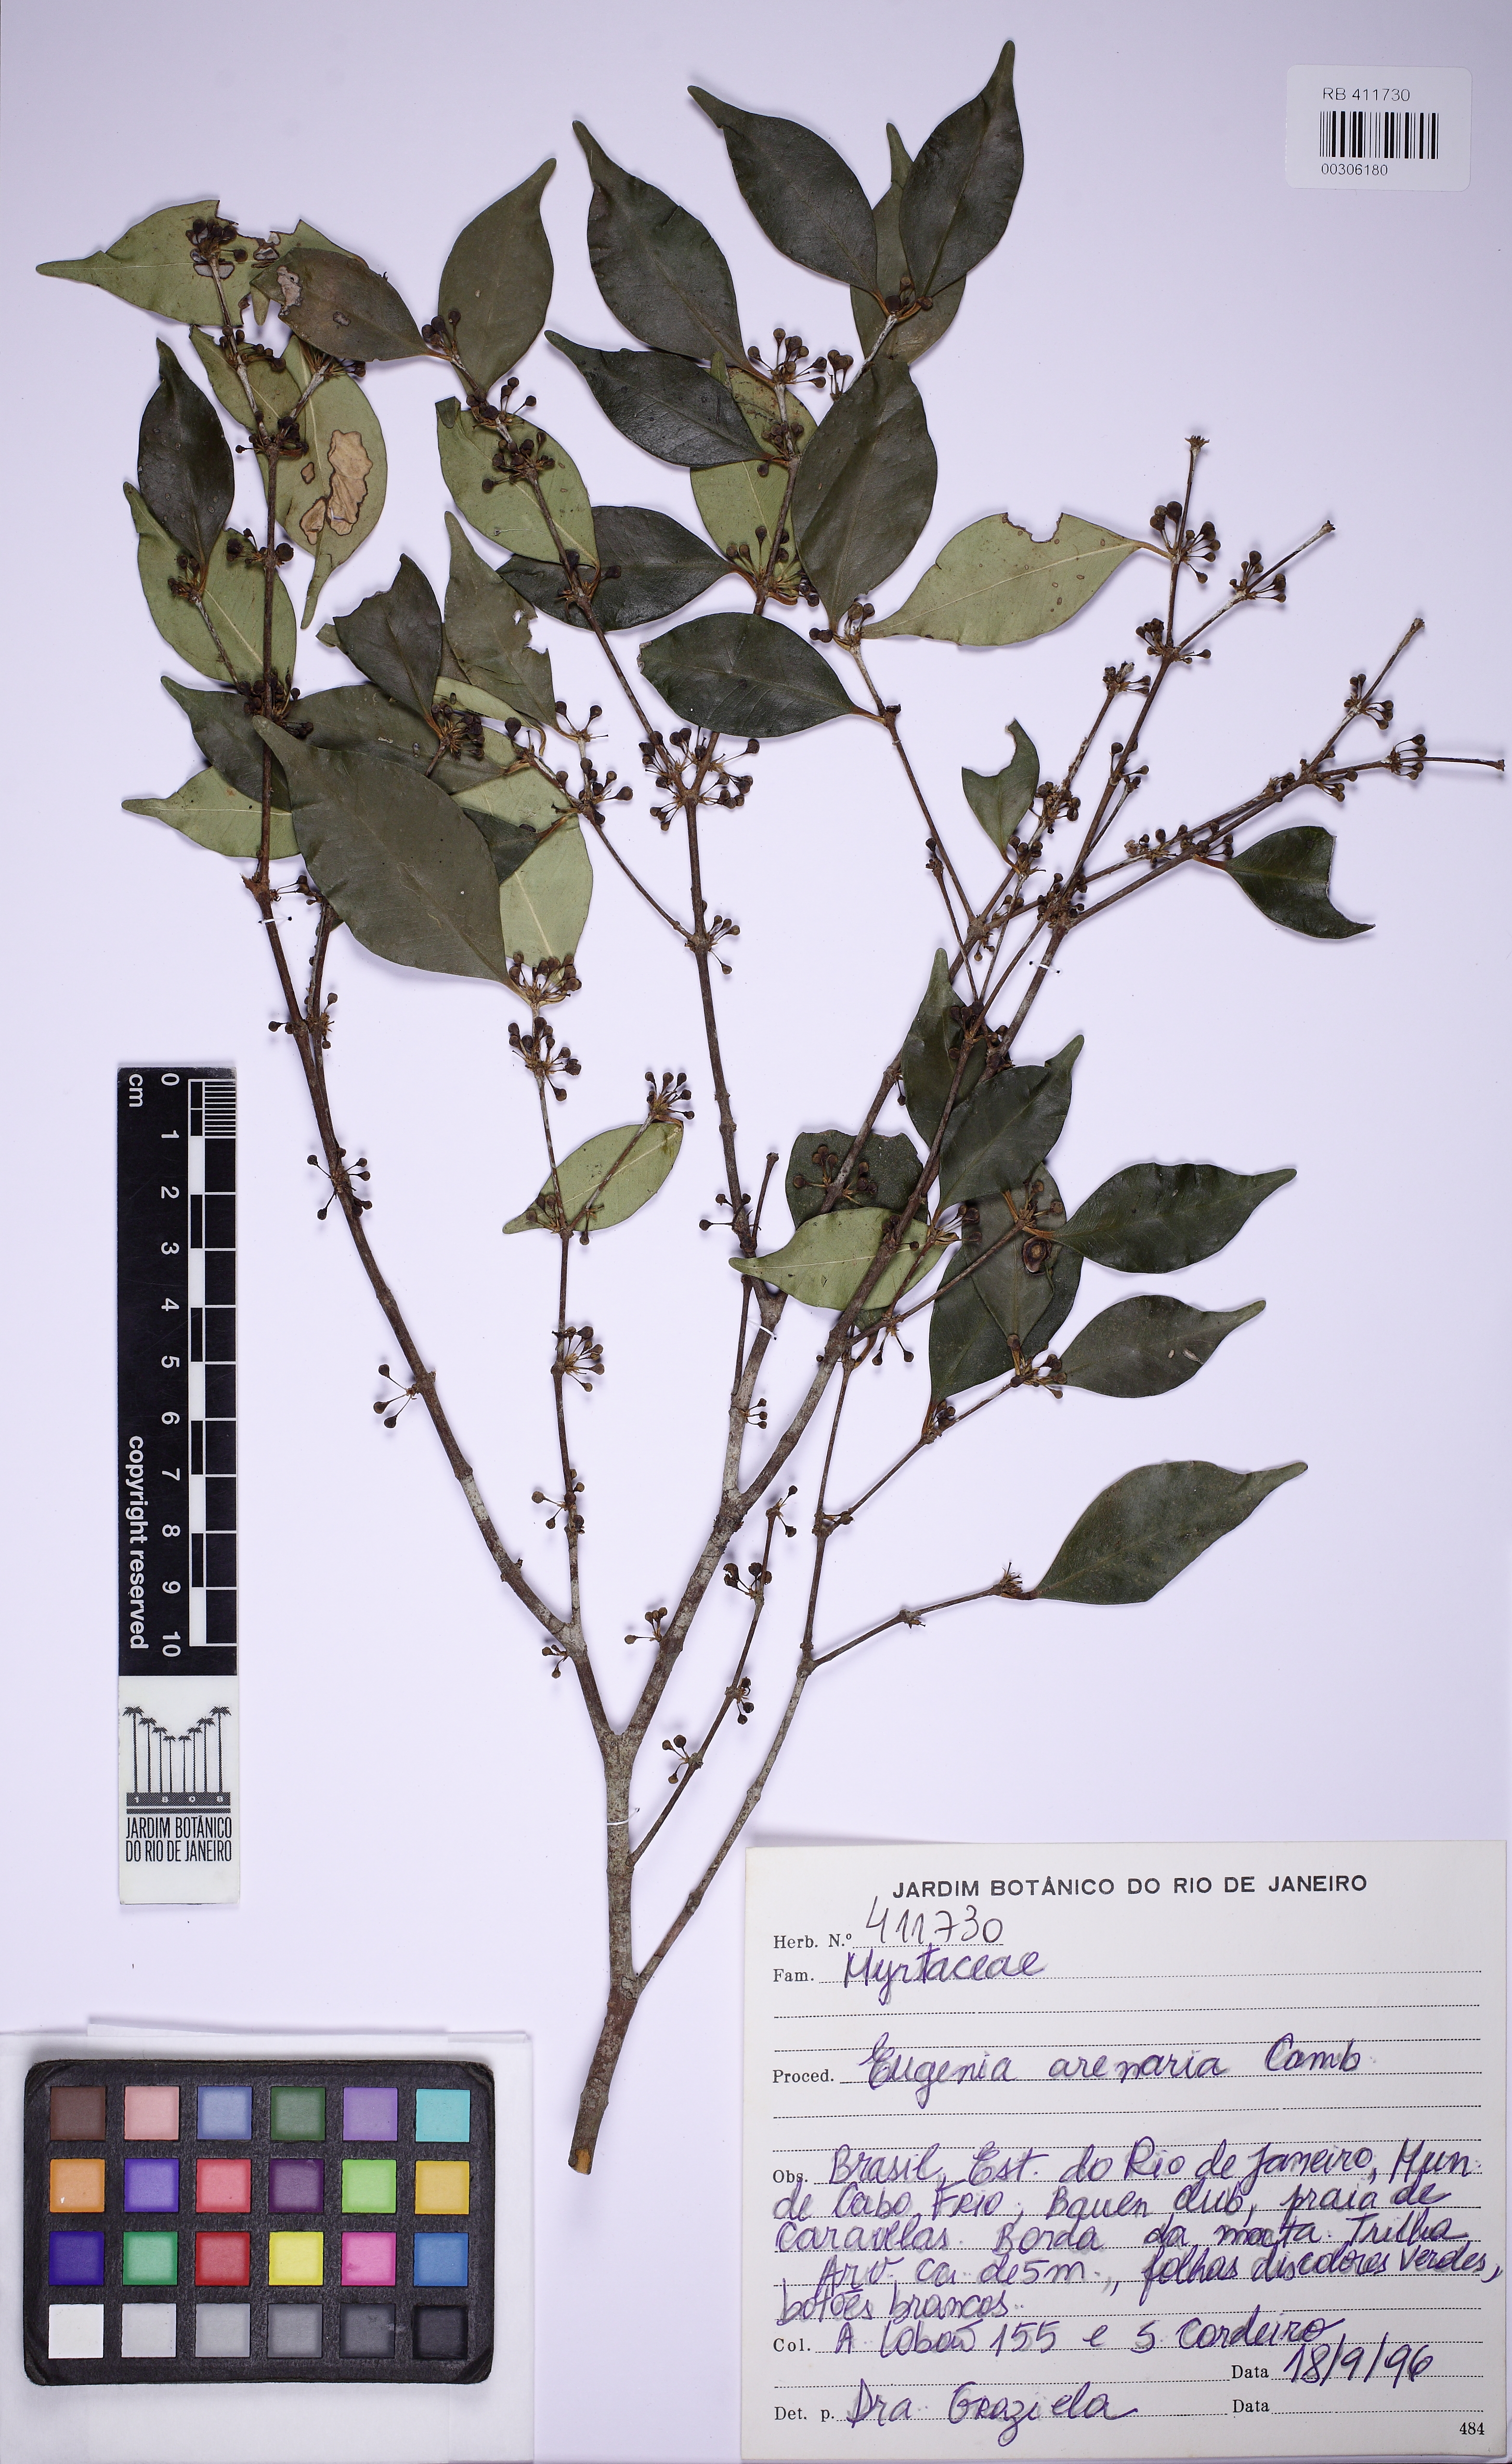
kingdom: Plantae
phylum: Tracheophyta
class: Magnoliopsida
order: Myrtales
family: Myrtaceae
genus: Eugenia
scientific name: Eugenia excelsa
